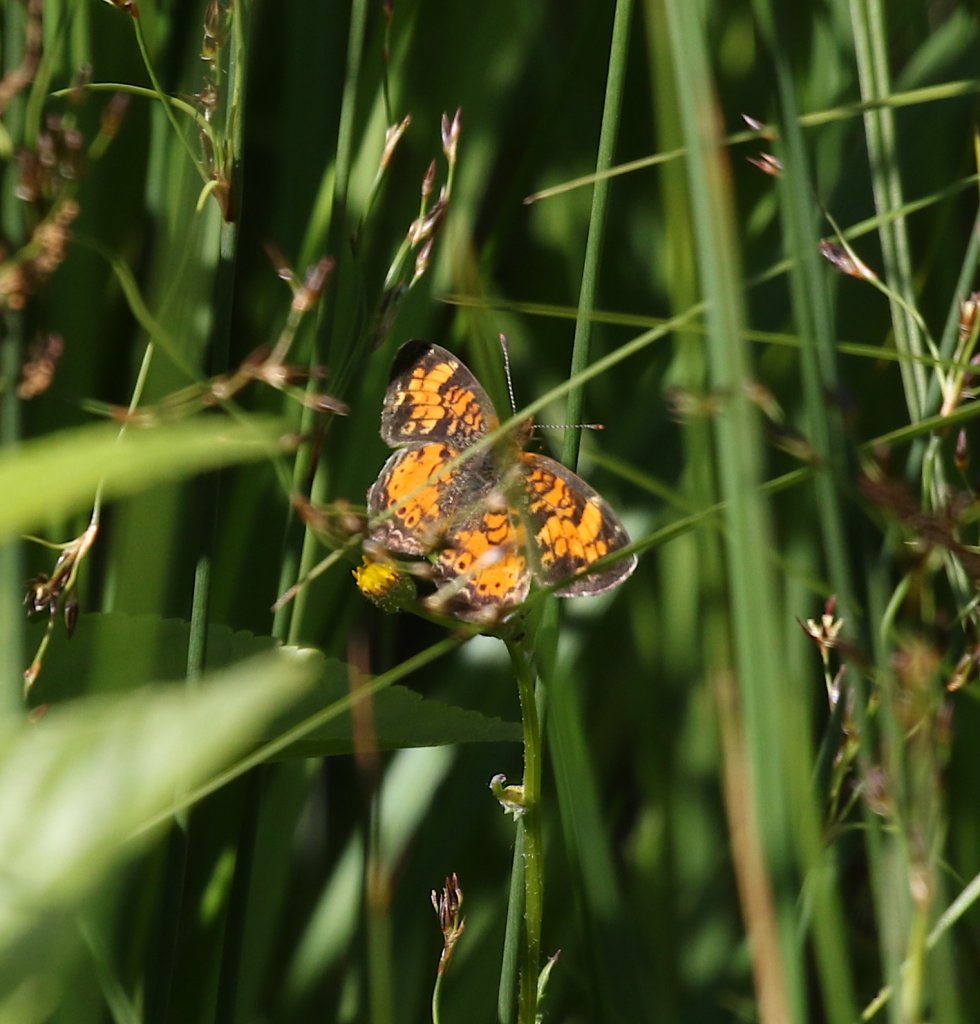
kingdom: Animalia
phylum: Arthropoda
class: Insecta
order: Lepidoptera
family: Nymphalidae
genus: Phyciodes
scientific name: Phyciodes tharos
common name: Northern Crescent
